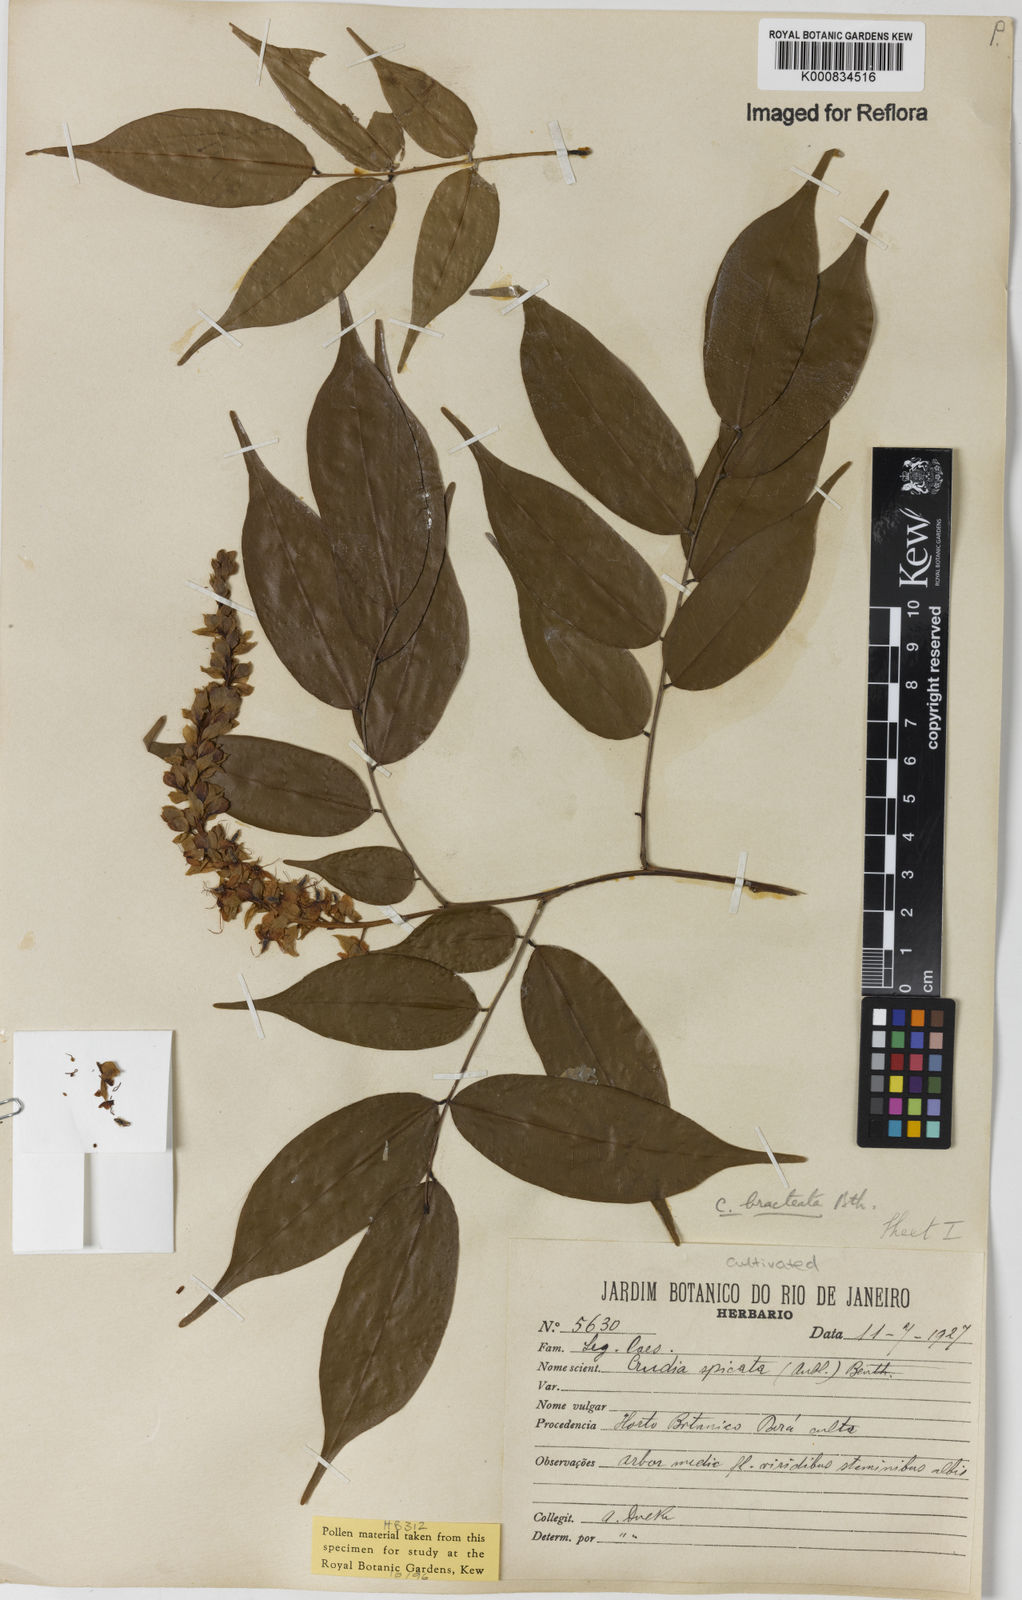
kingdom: Plantae
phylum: Tracheophyta
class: Magnoliopsida
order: Fabales
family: Fabaceae
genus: Crudia
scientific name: Crudia bracteata
